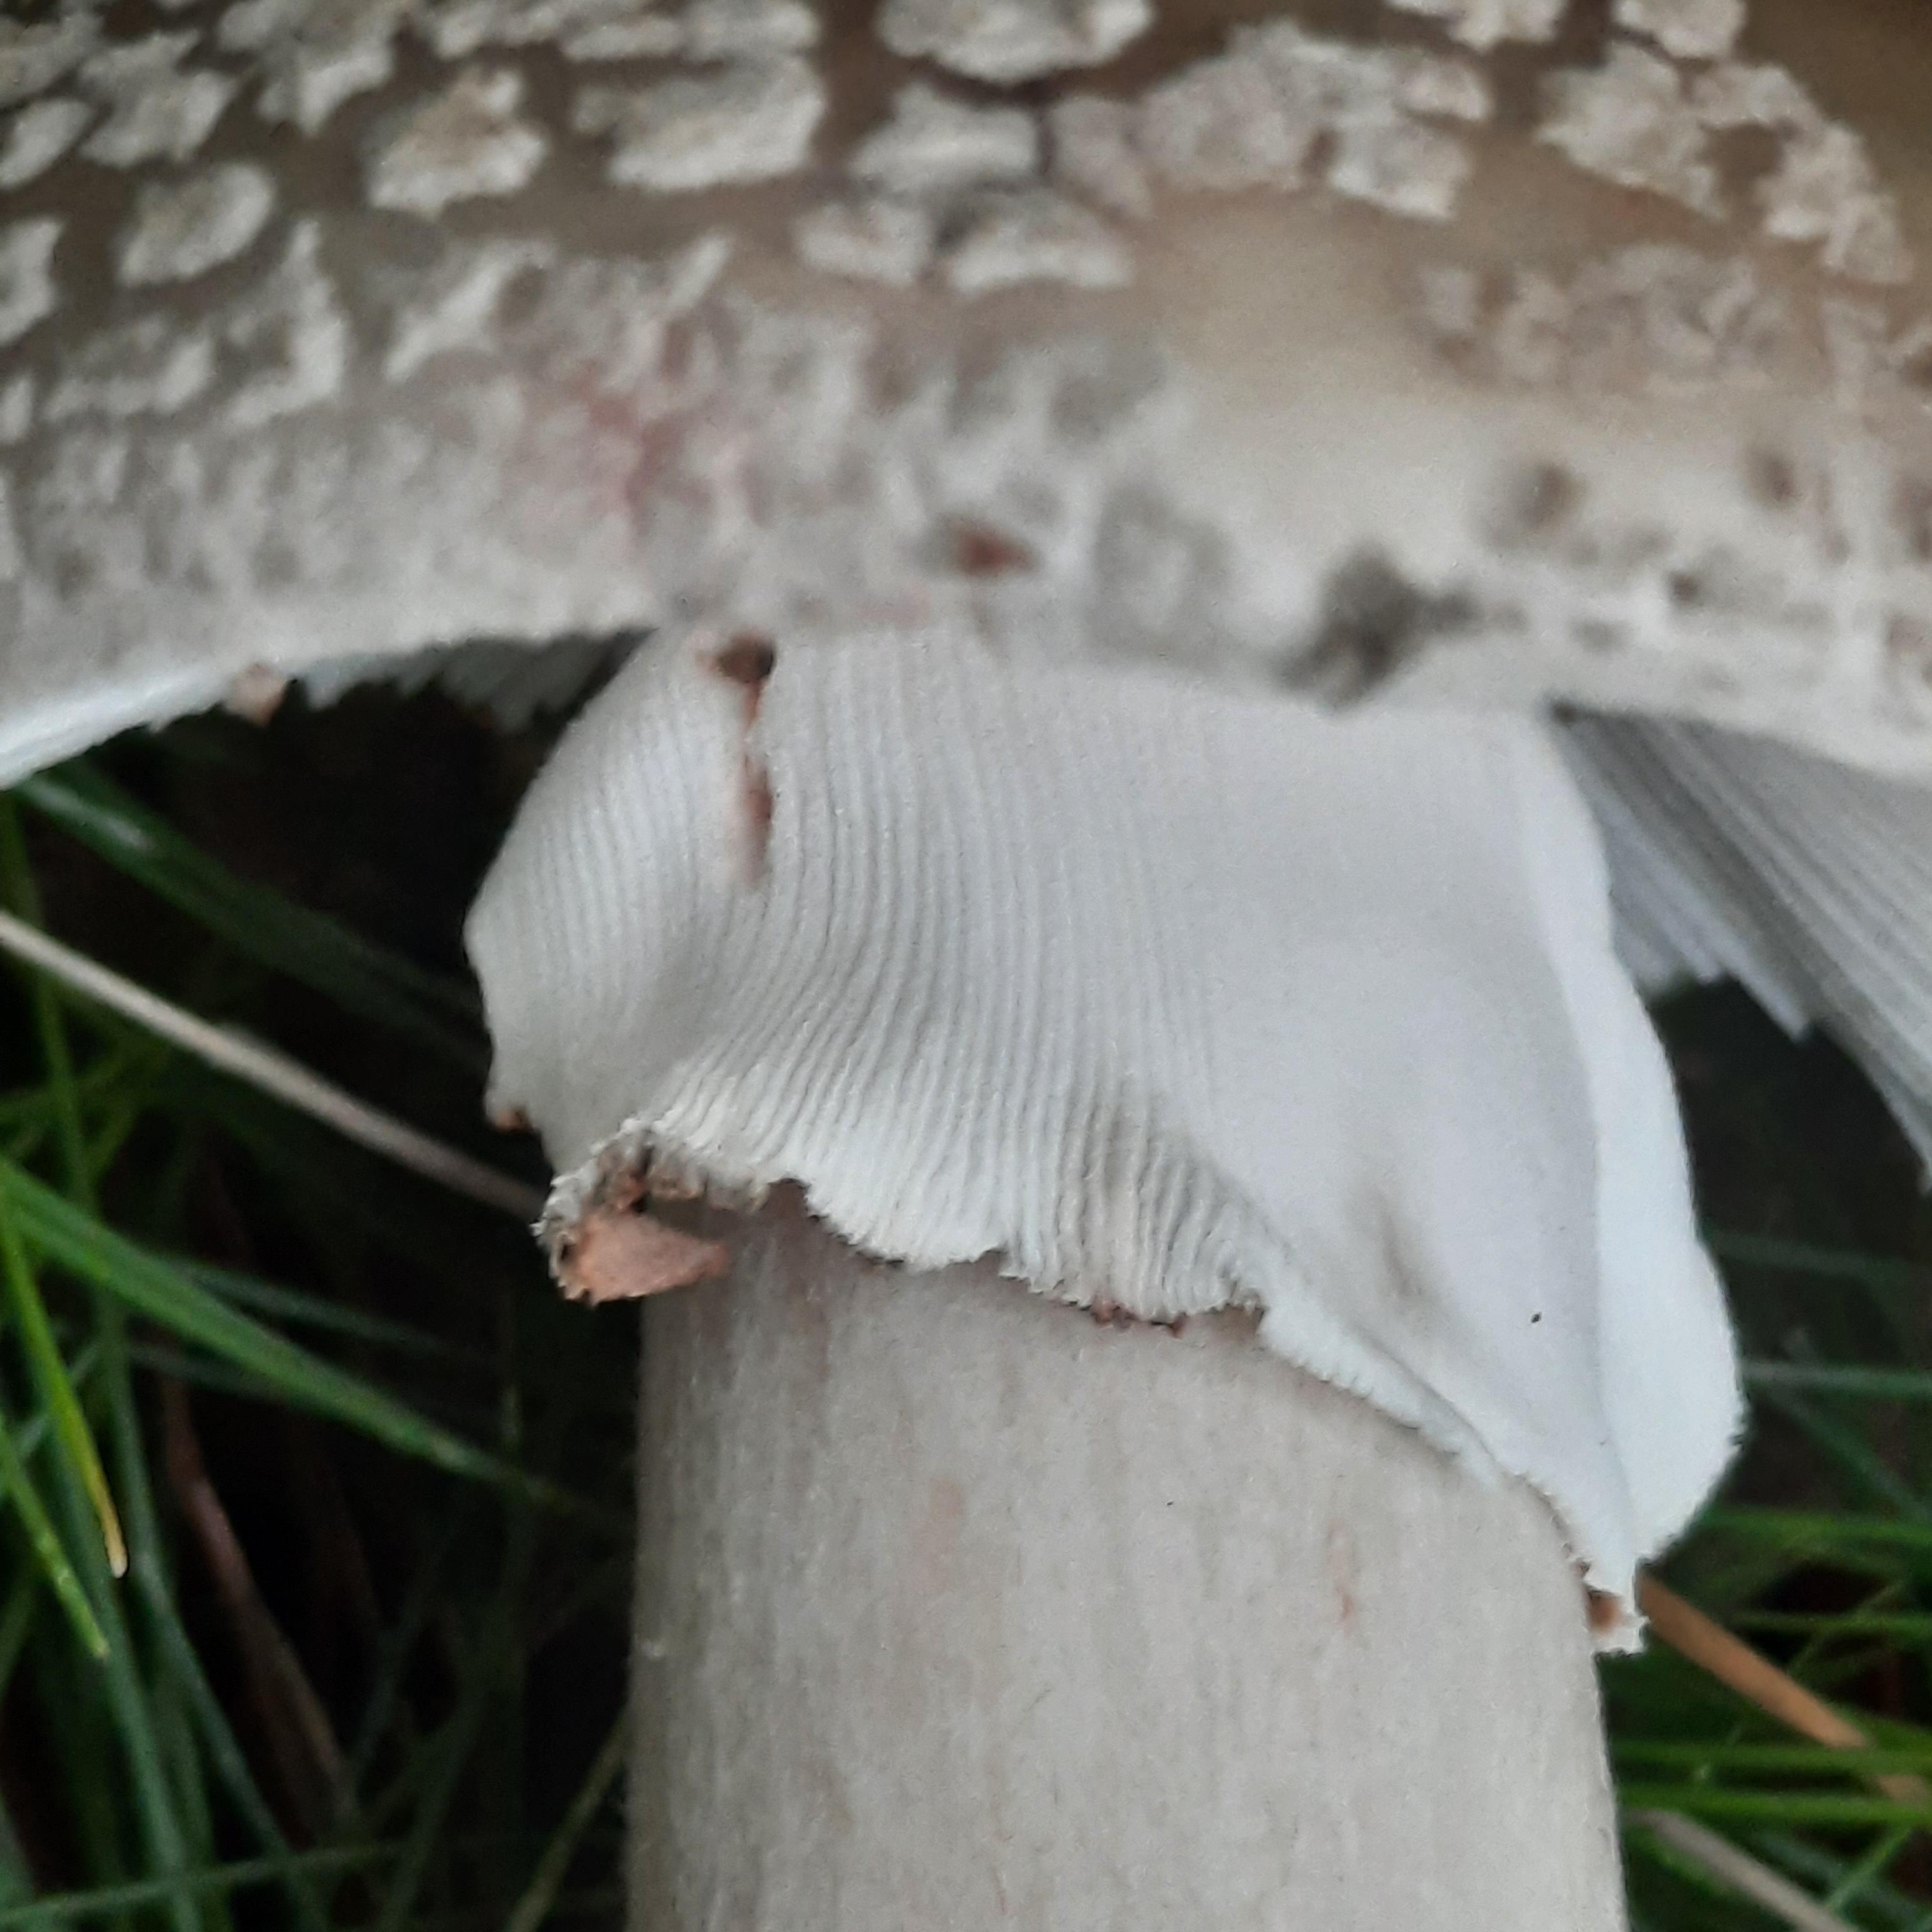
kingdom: Fungi
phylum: Basidiomycota
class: Agaricomycetes
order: Agaricales
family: Amanitaceae
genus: Amanita
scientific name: Amanita
